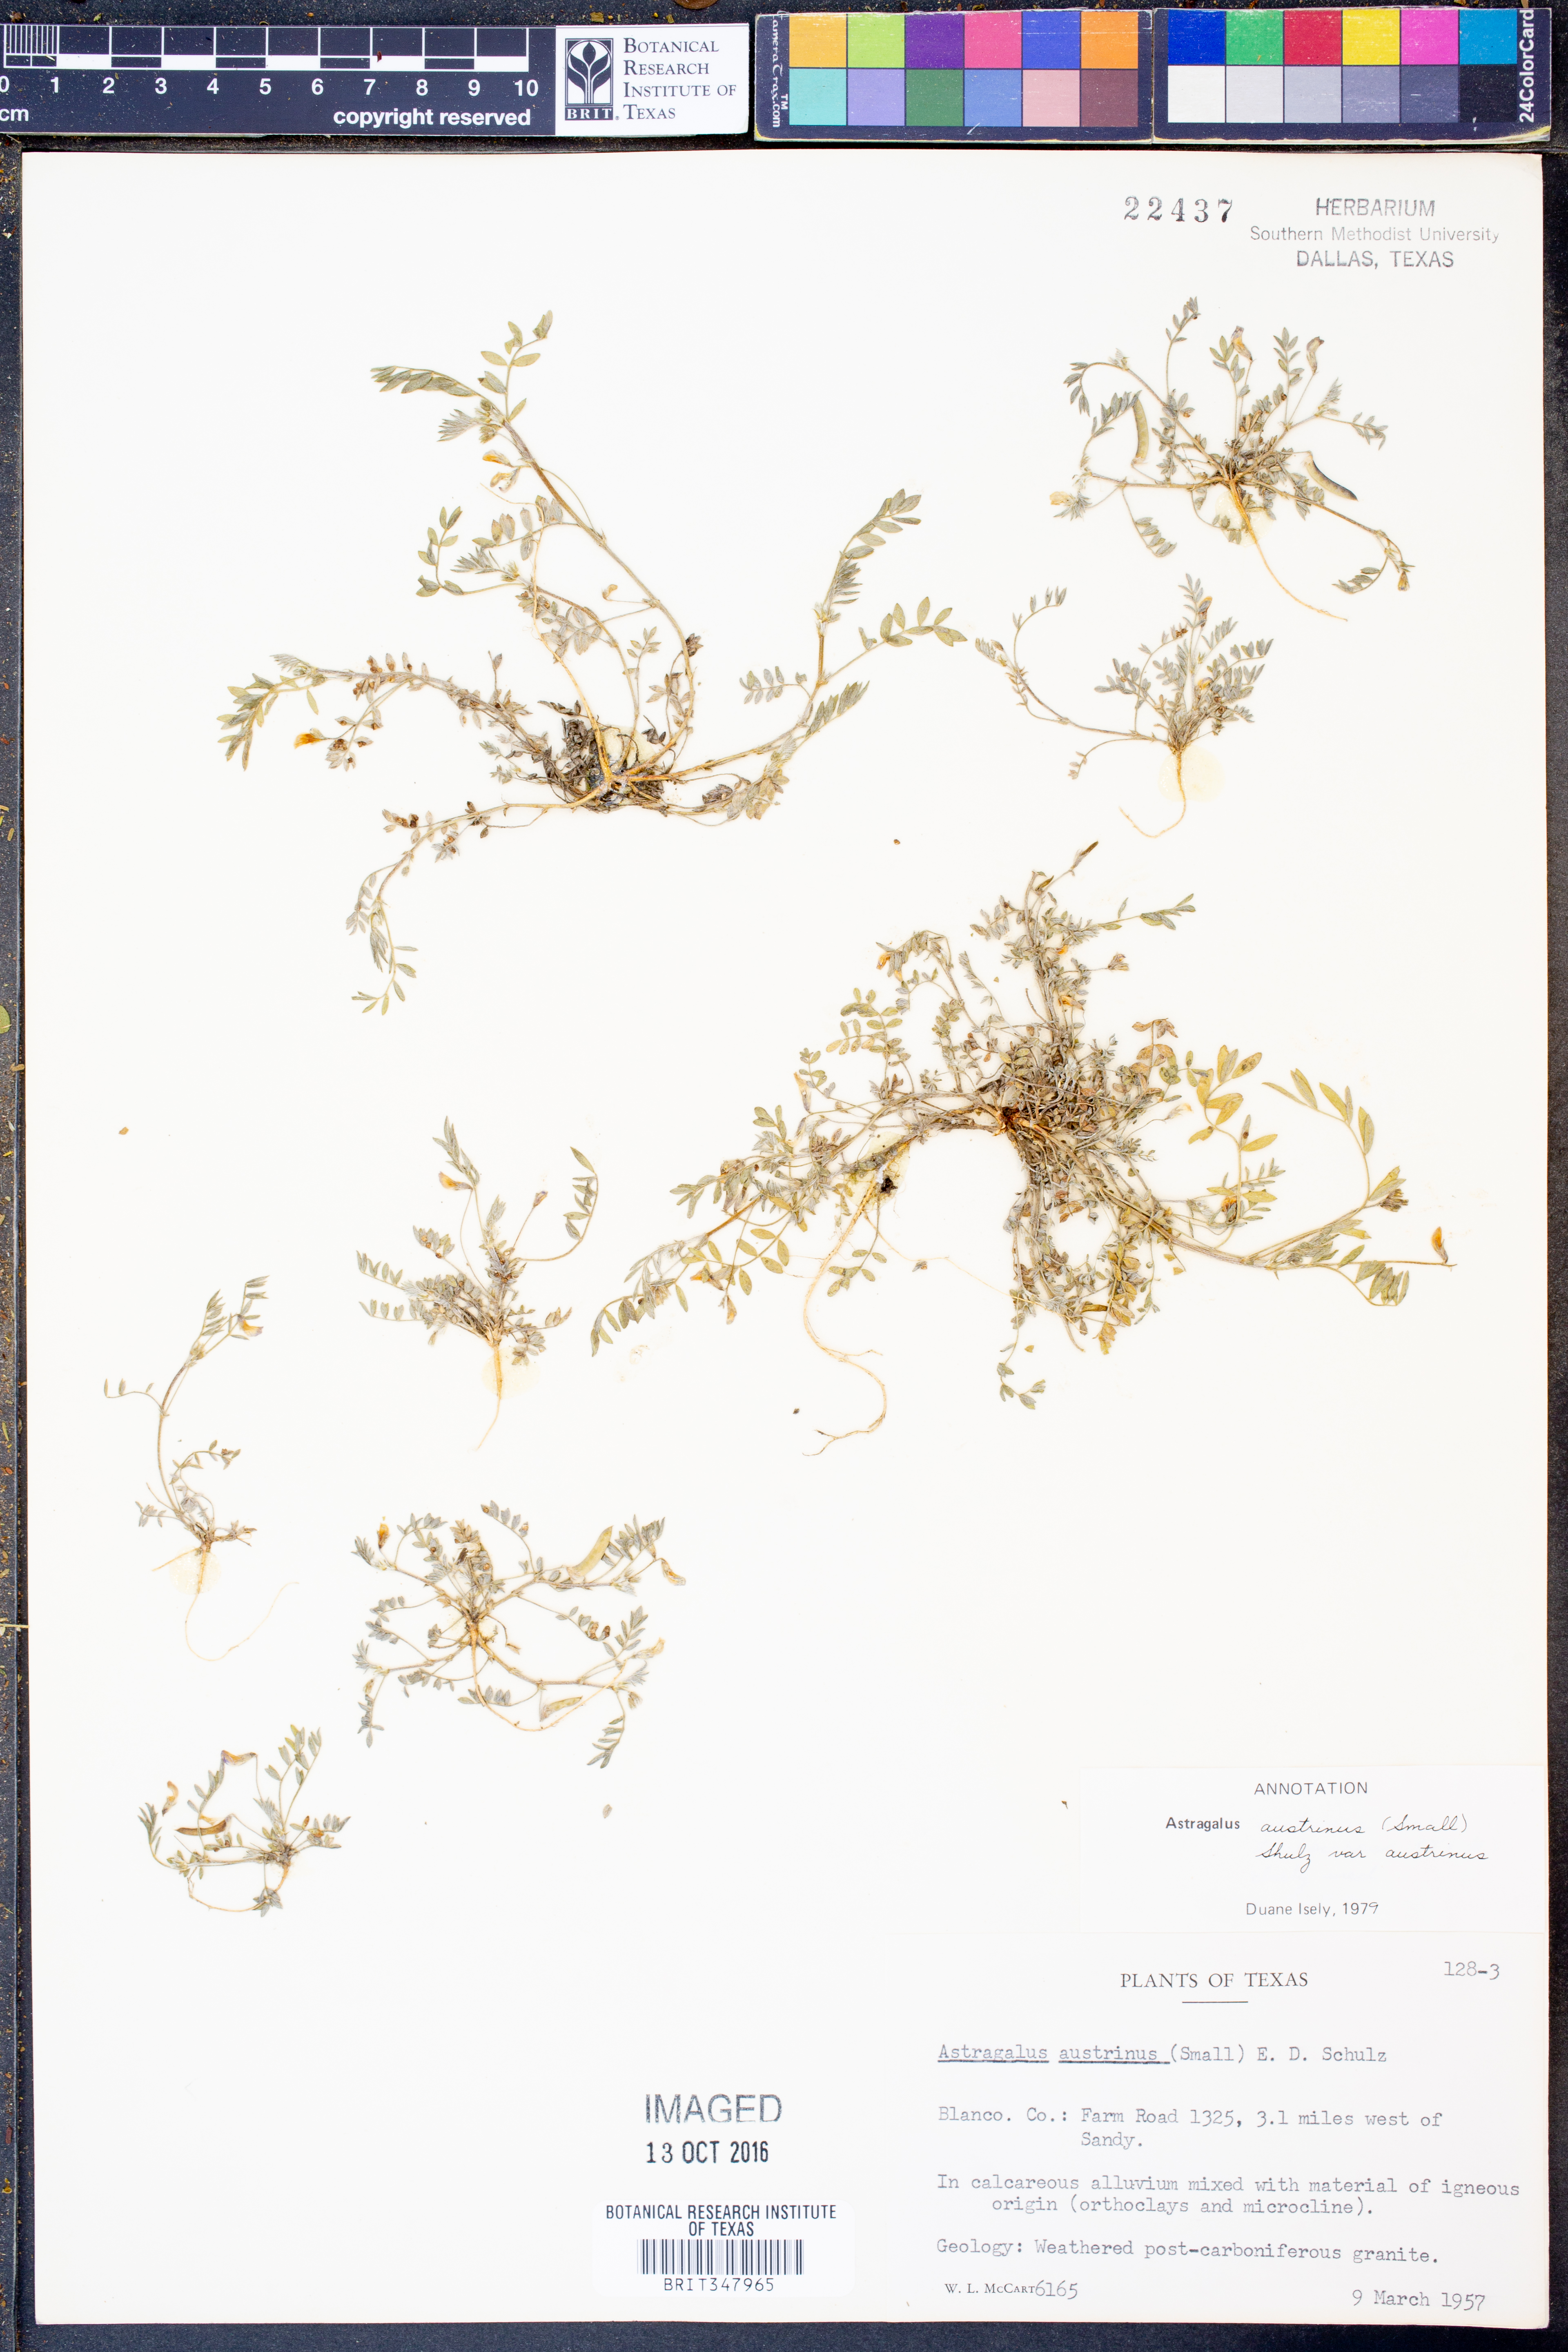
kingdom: Plantae
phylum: Tracheophyta
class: Magnoliopsida
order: Fabales
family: Fabaceae
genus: Astragalus
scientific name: Astragalus nuttallianus
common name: Smallflowered milkvetch
